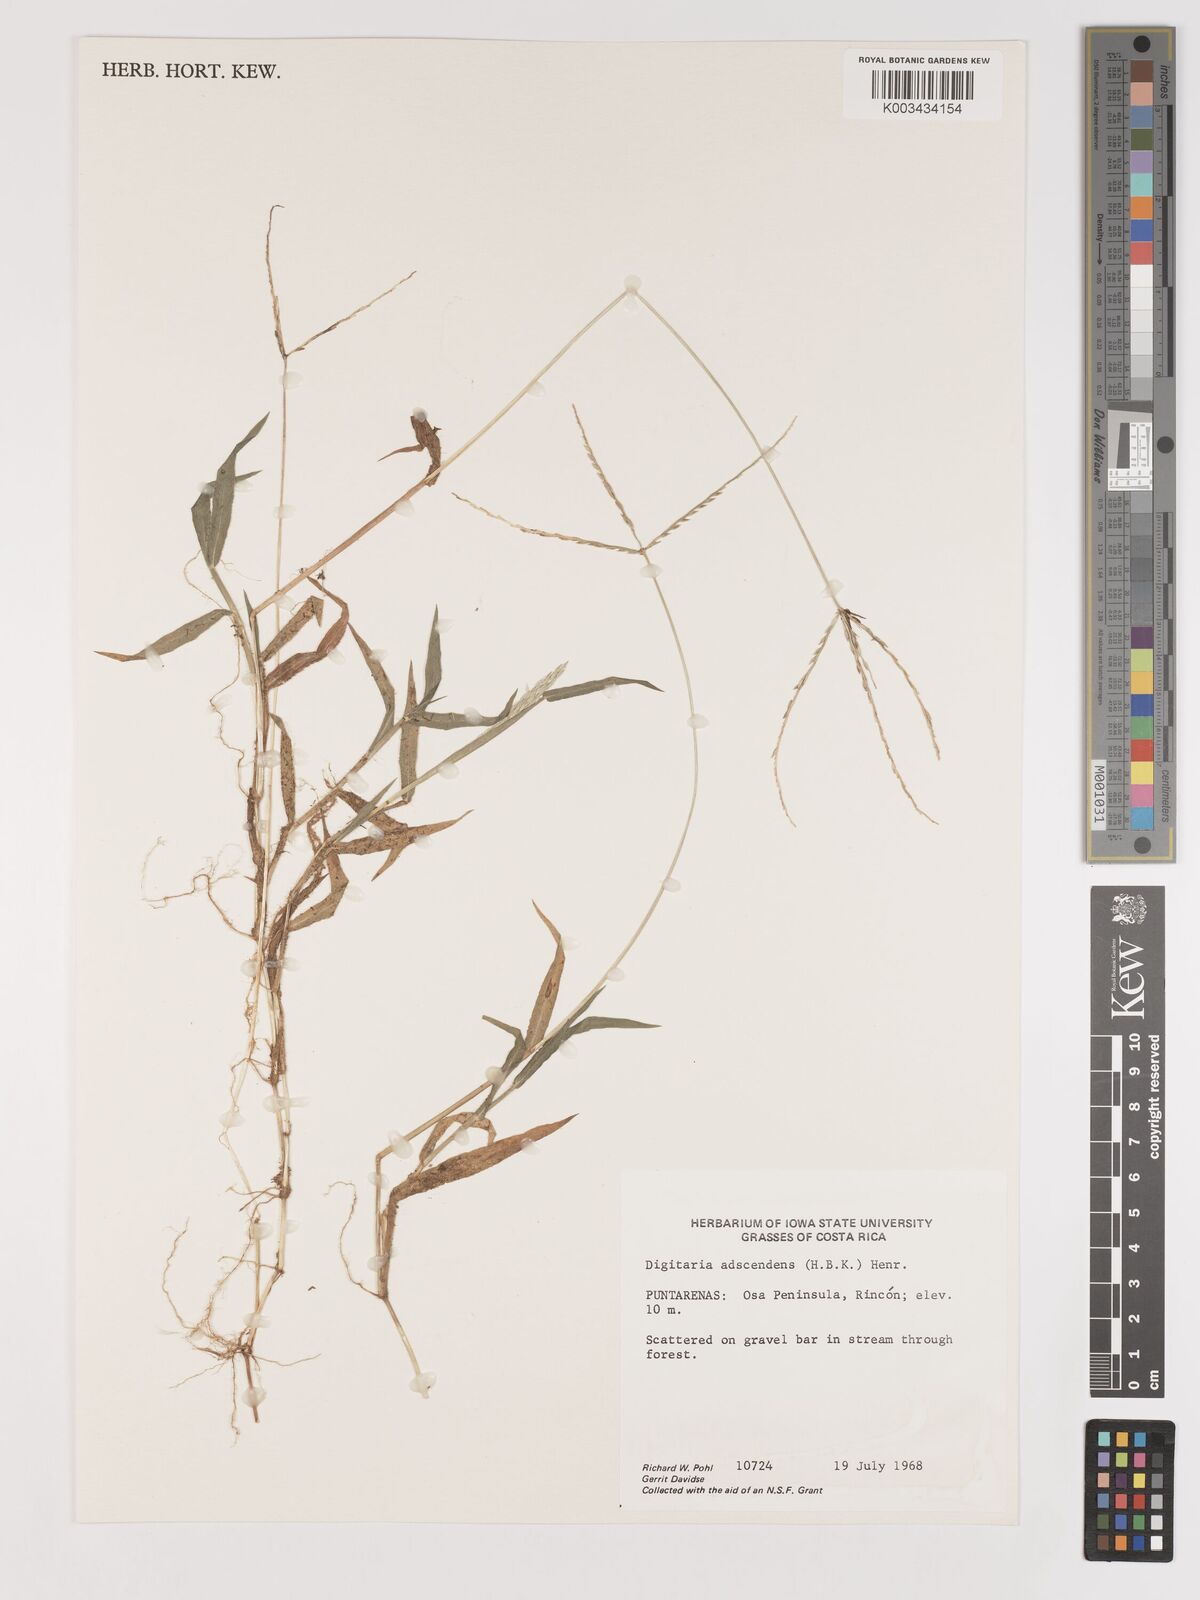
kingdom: Plantae
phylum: Tracheophyta
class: Liliopsida
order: Poales
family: Poaceae
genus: Digitaria
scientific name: Digitaria ciliaris
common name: Tropical finger-grass
